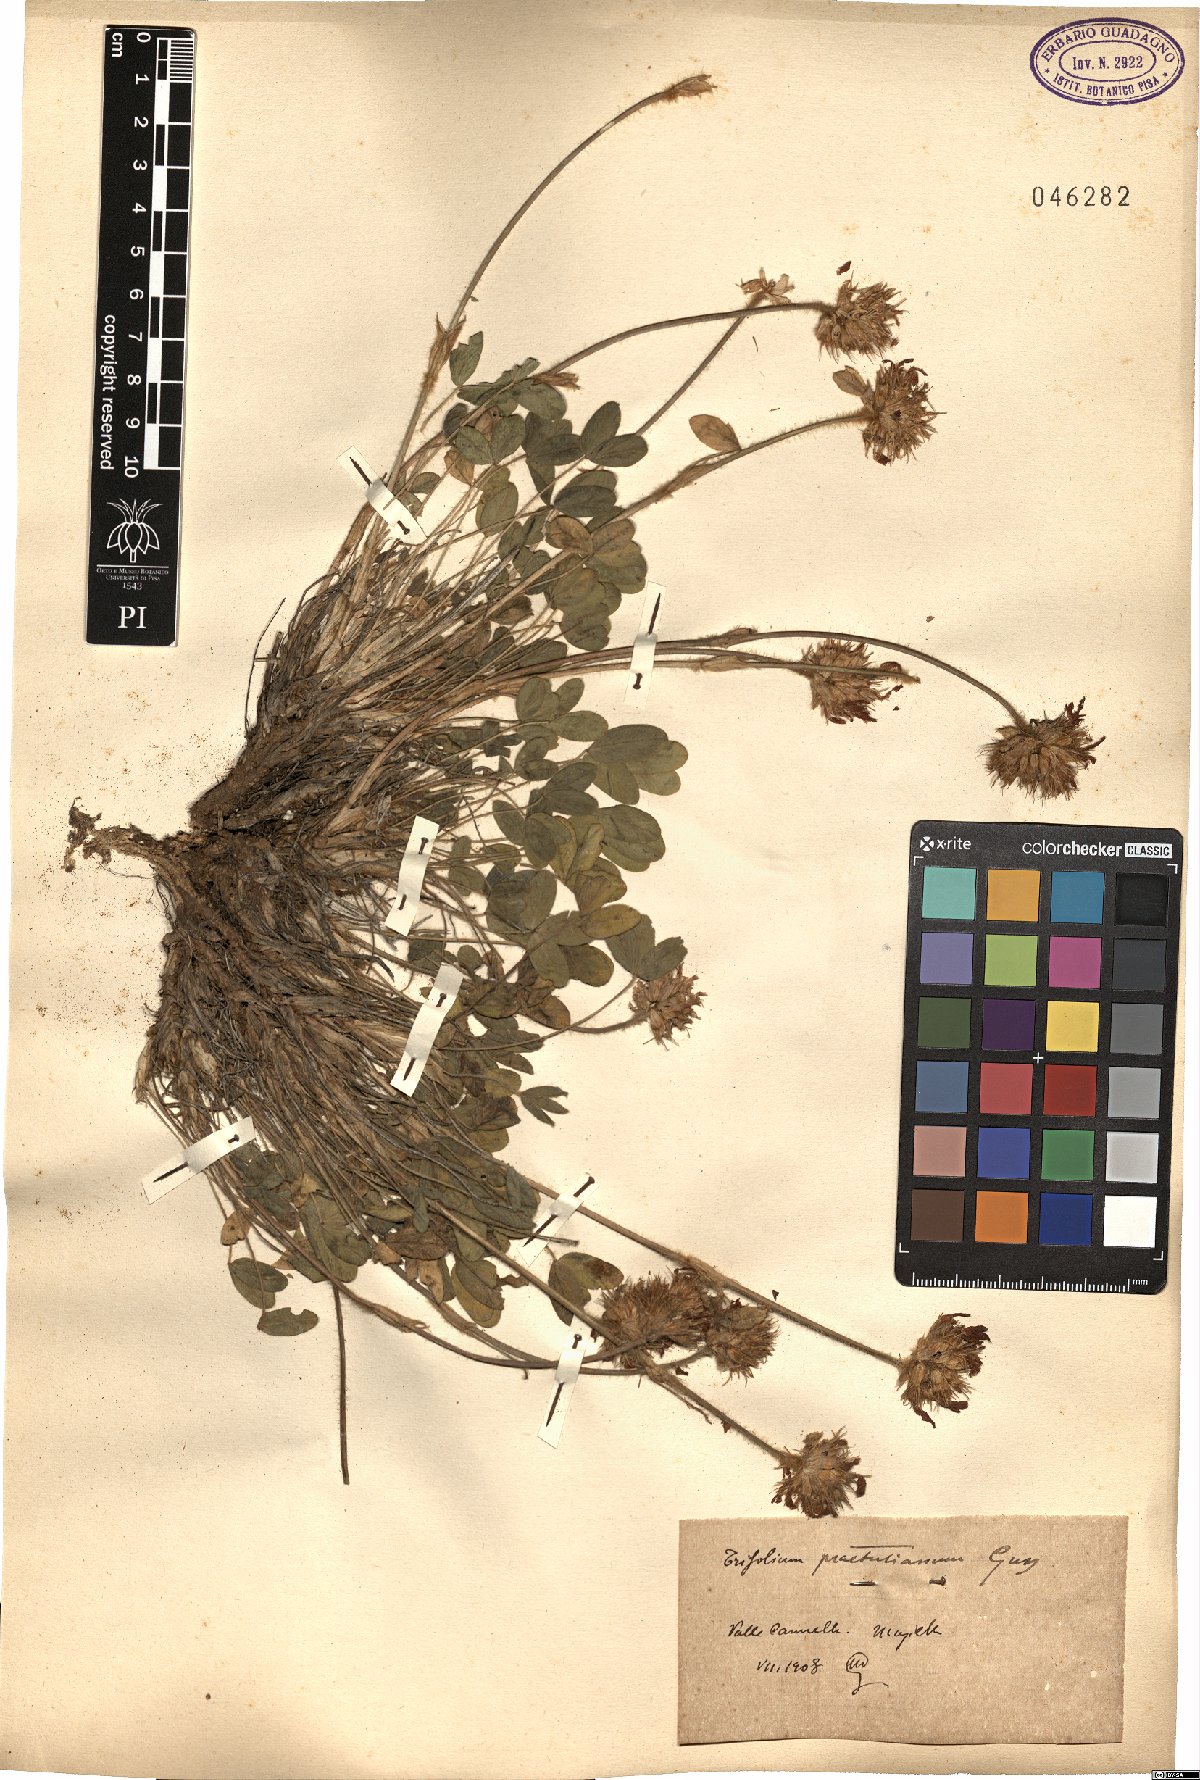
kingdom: Plantae
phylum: Tracheophyta
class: Magnoliopsida
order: Fabales
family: Fabaceae
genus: Trifolium
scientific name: Trifolium noricum
